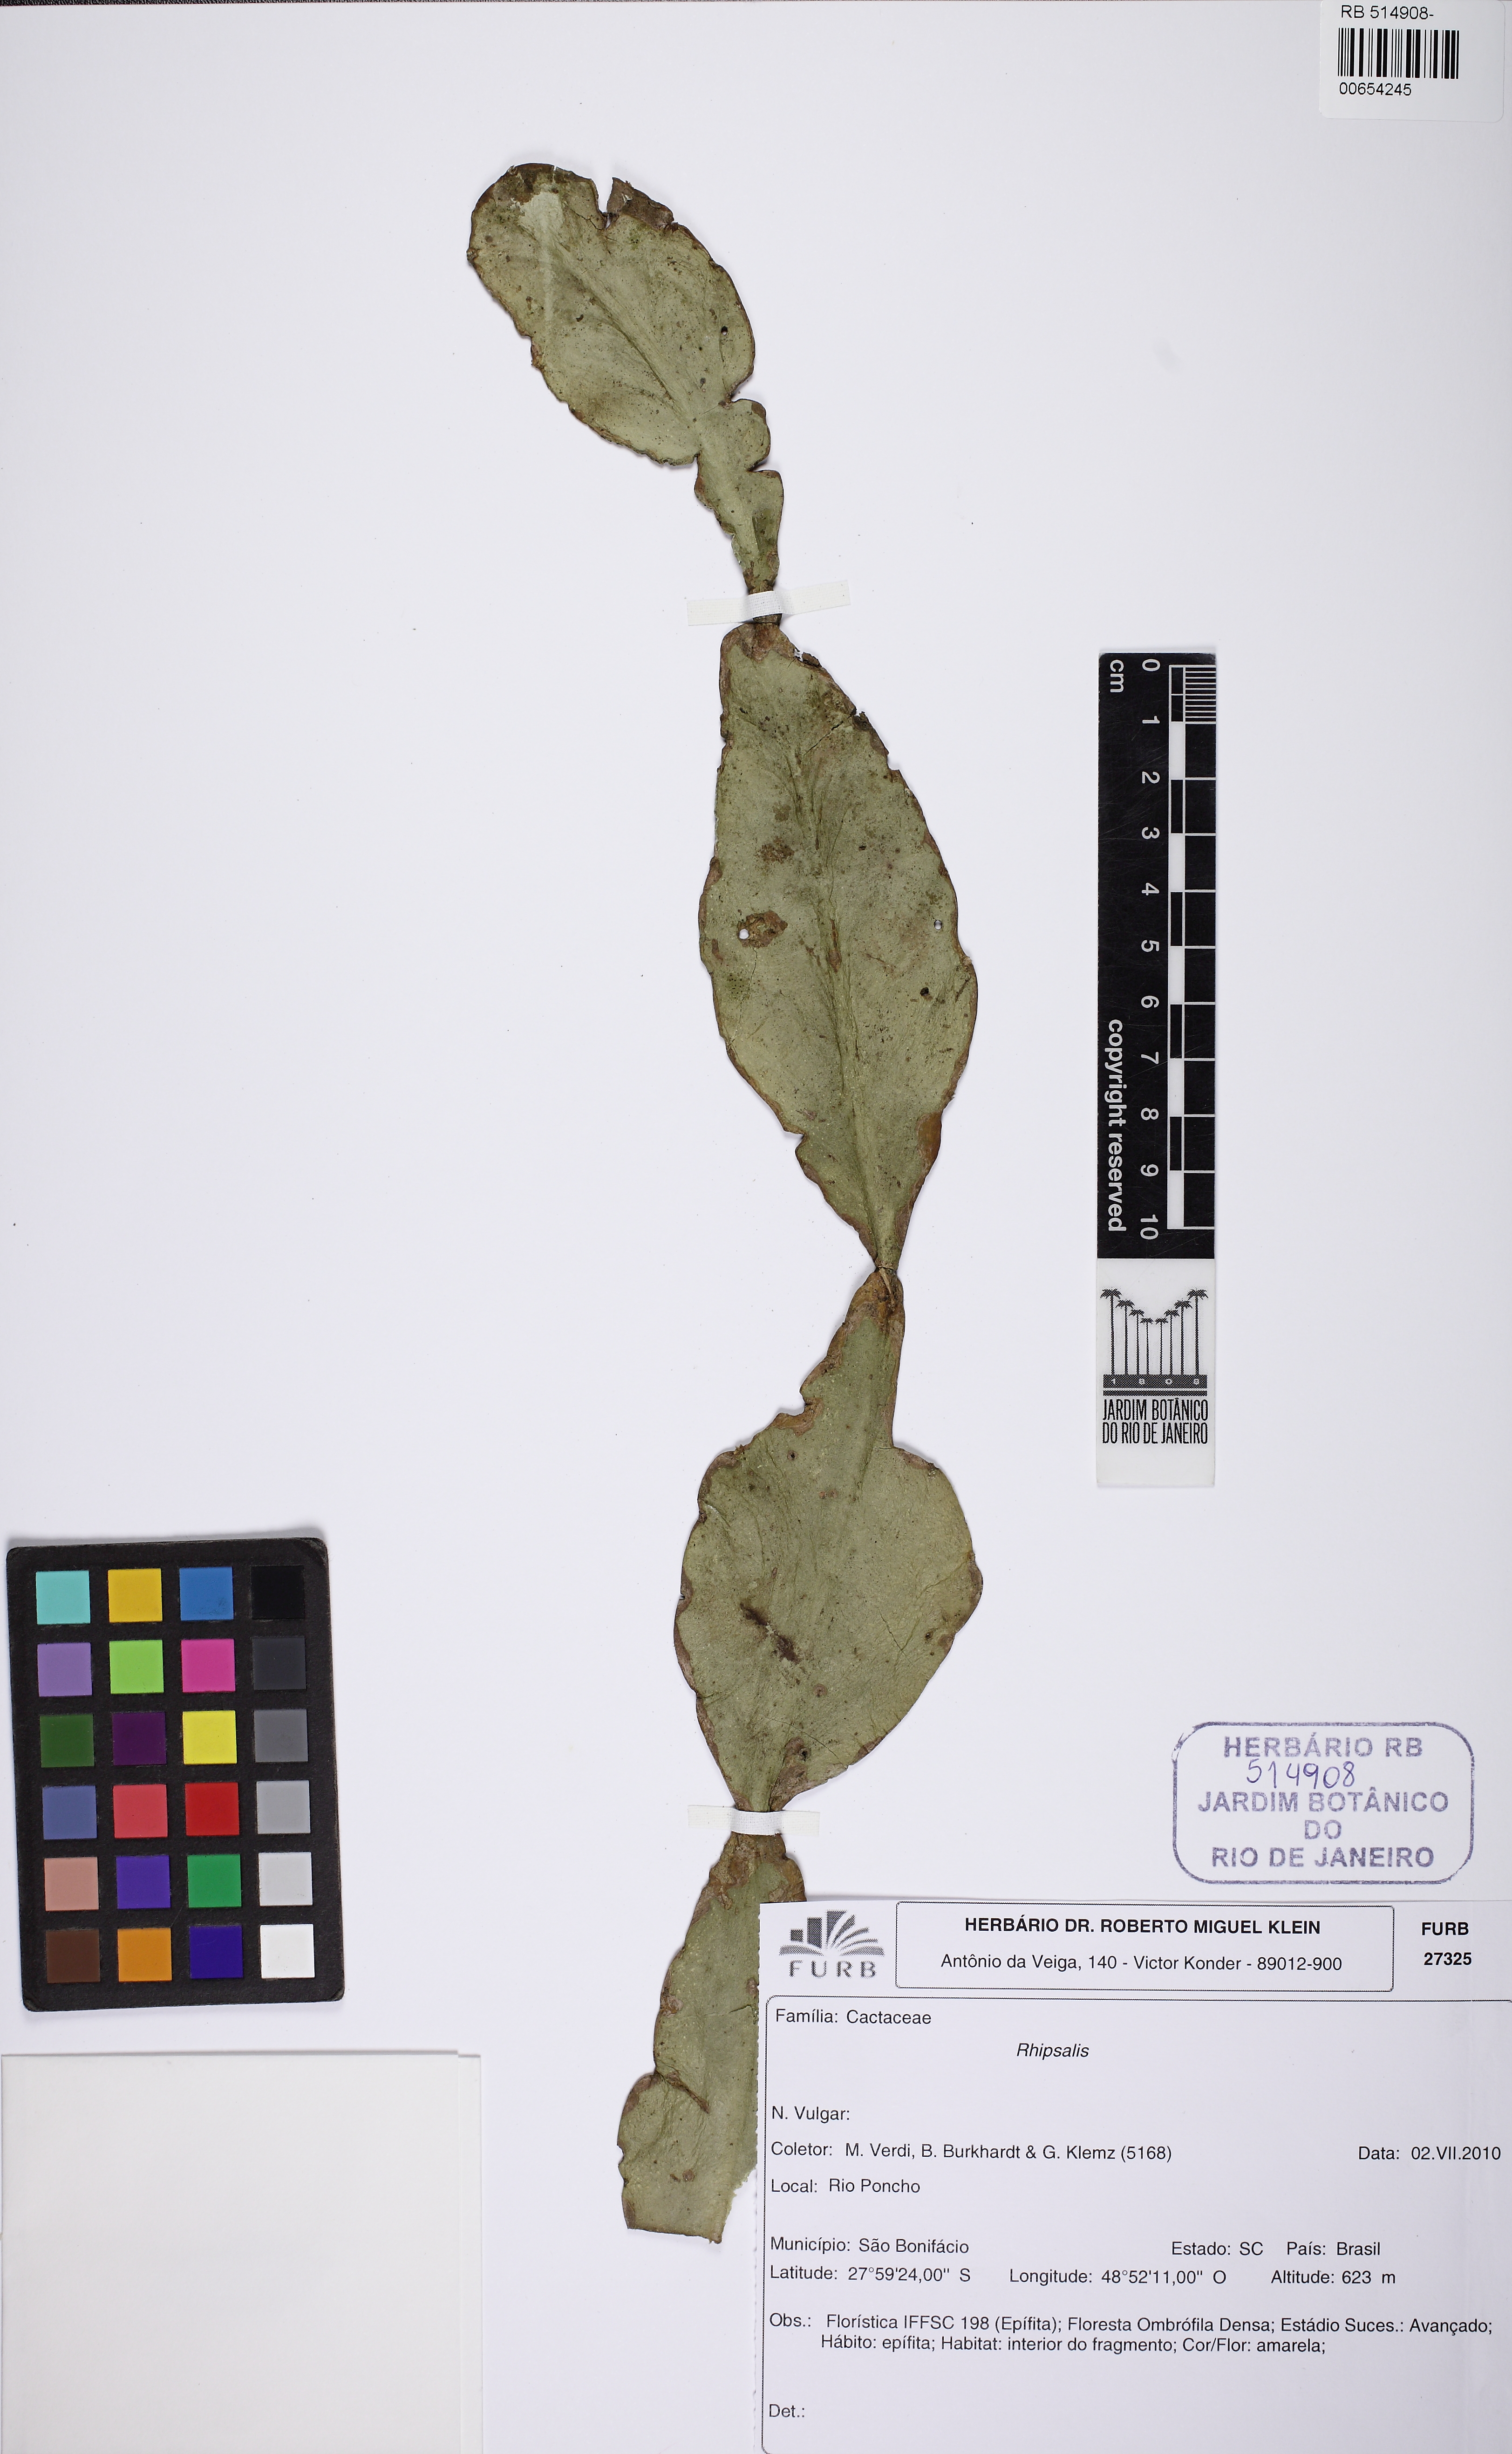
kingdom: Plantae
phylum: Tracheophyta
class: Magnoliopsida
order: Caryophyllales
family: Cactaceae
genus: Rhipsalis
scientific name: Rhipsalis elliptica
